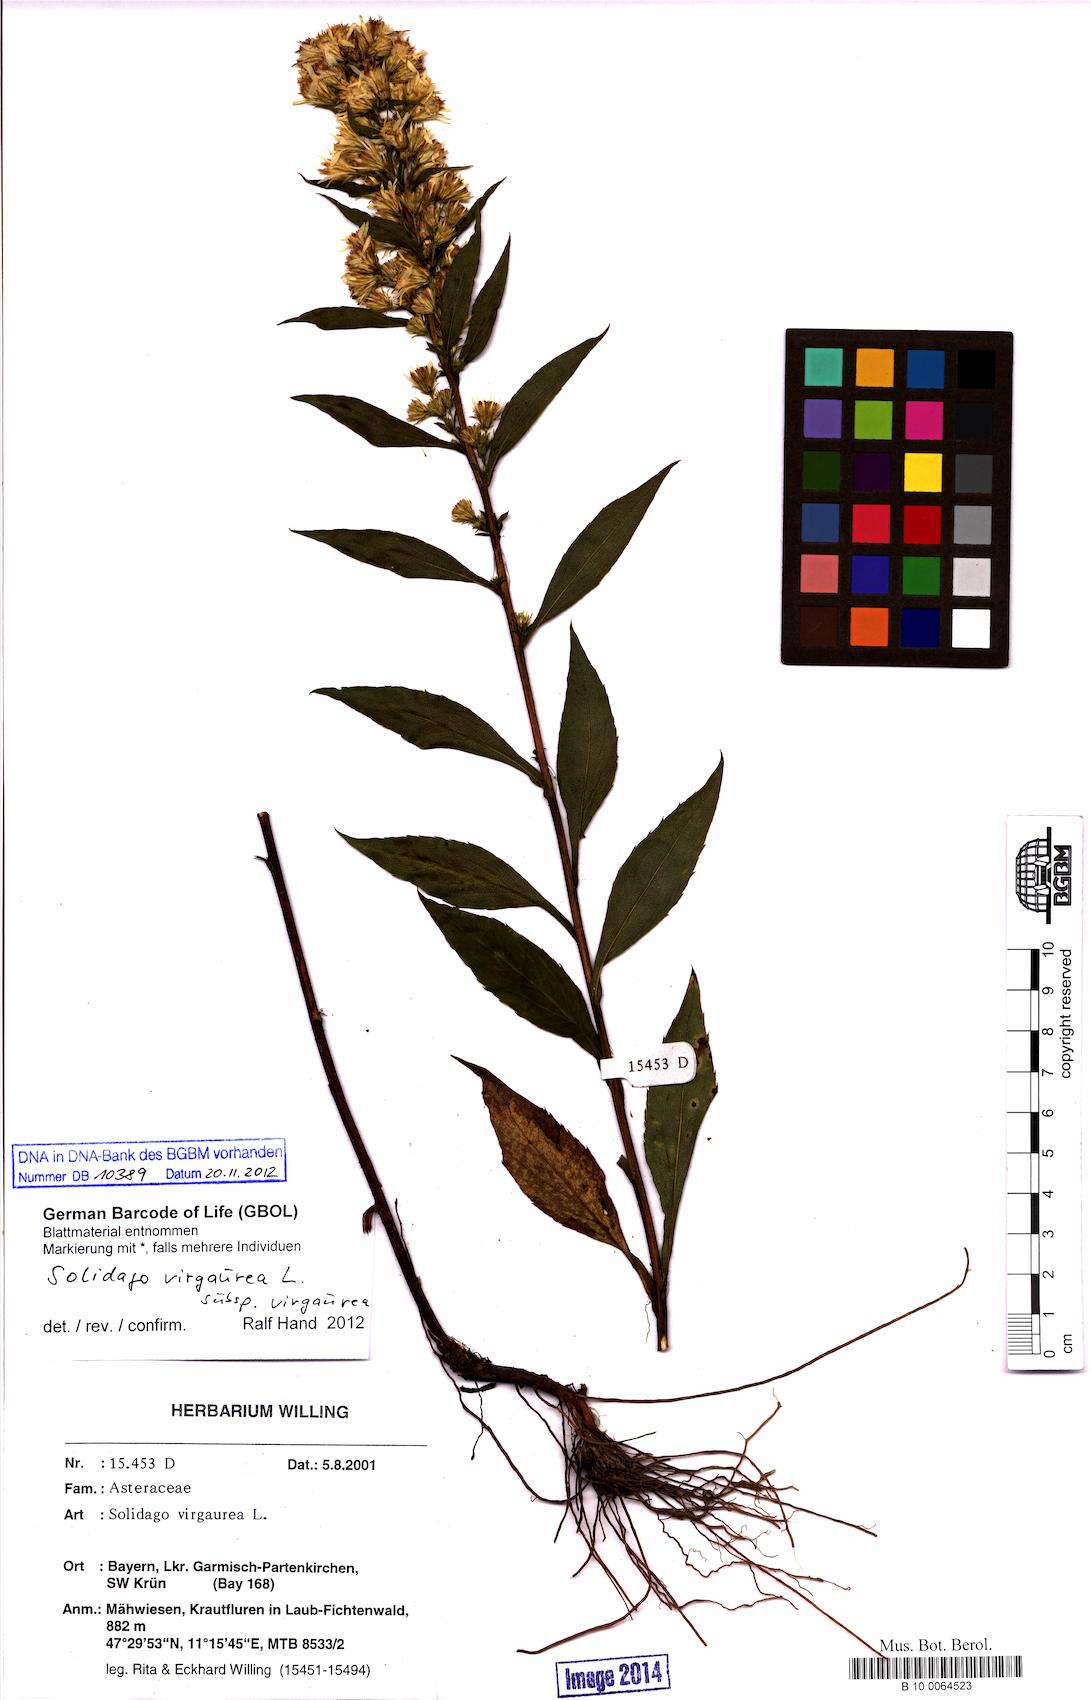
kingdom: Plantae
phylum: Tracheophyta
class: Magnoliopsida
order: Asterales
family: Asteraceae
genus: Solidago
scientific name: Solidago virgaurea
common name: Goldenrod
